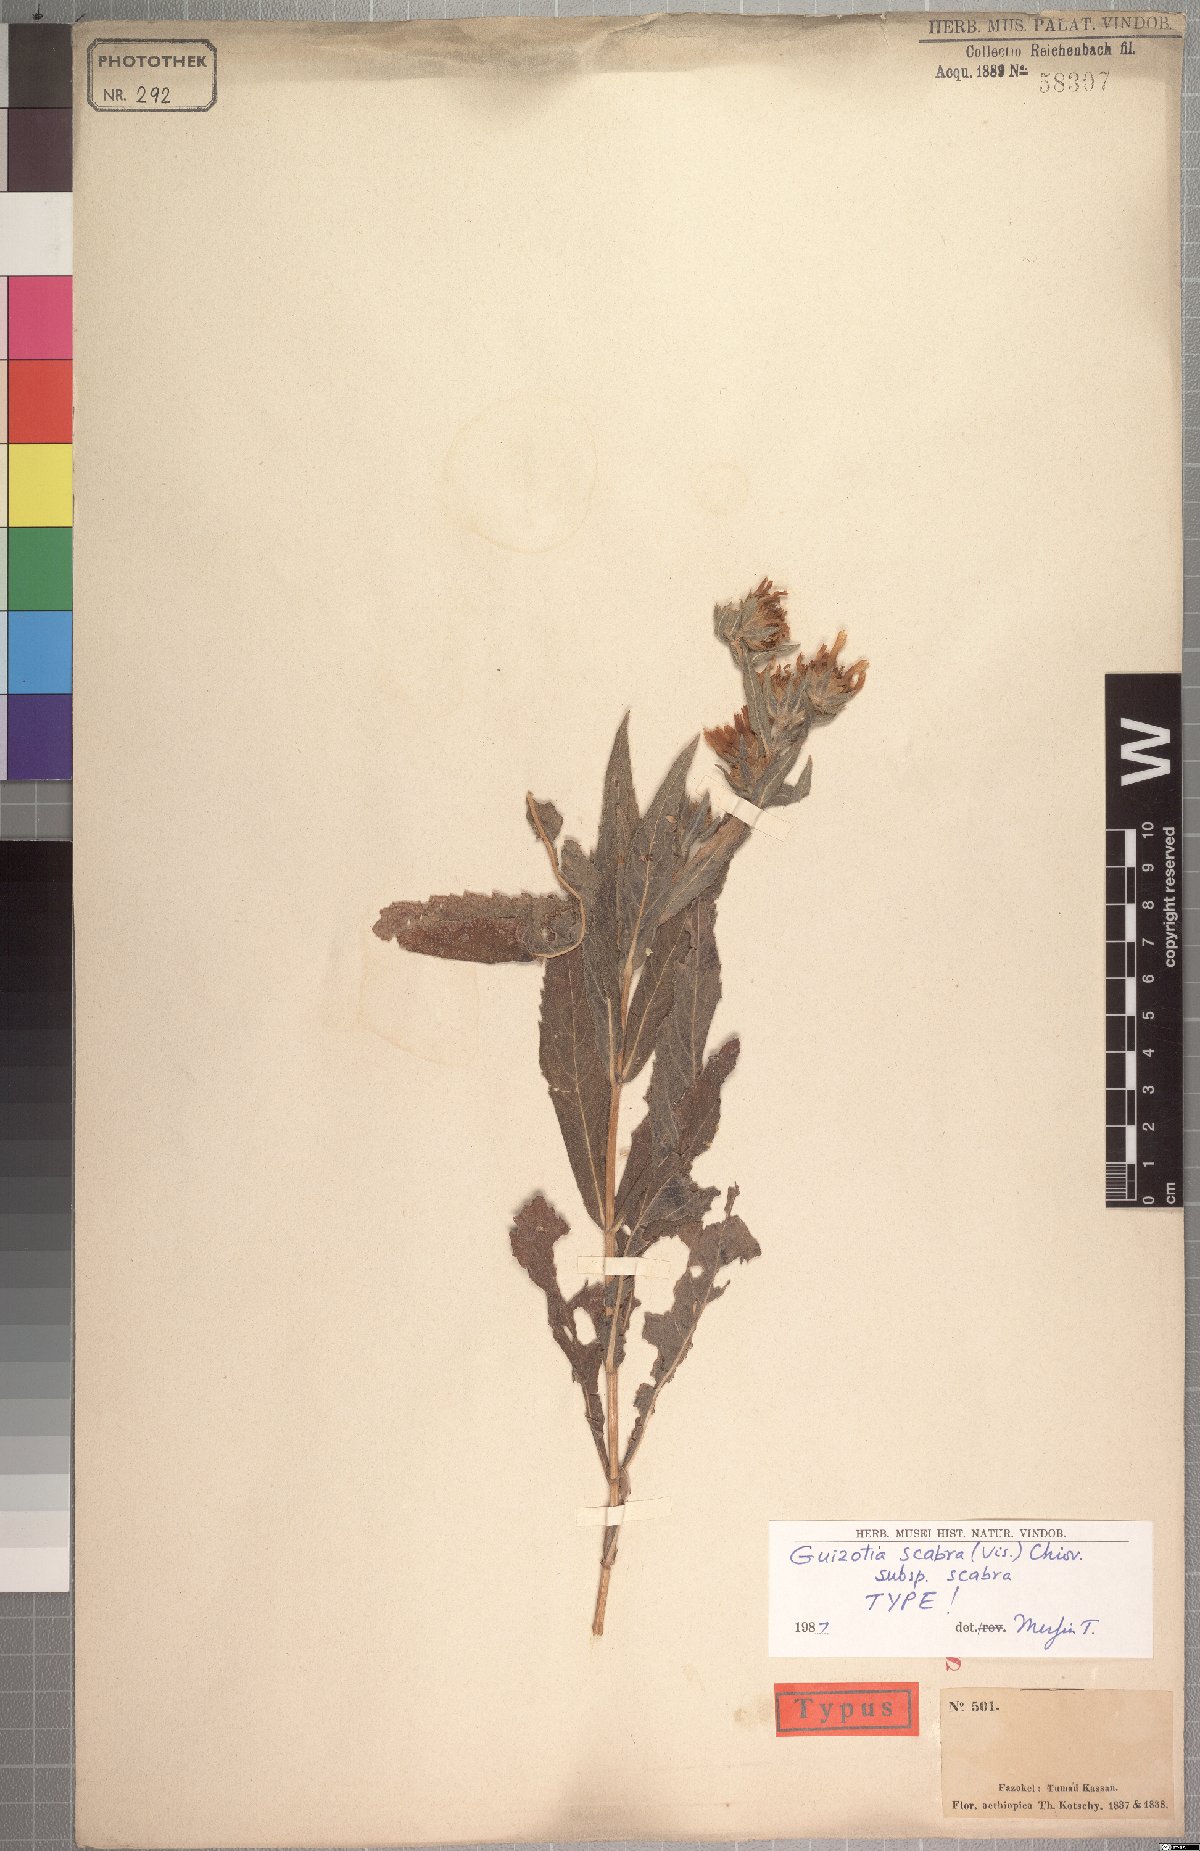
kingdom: Plantae
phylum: Tracheophyta
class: Magnoliopsida
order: Asterales
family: Asteraceae
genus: Guizotia
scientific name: Guizotia scabra
